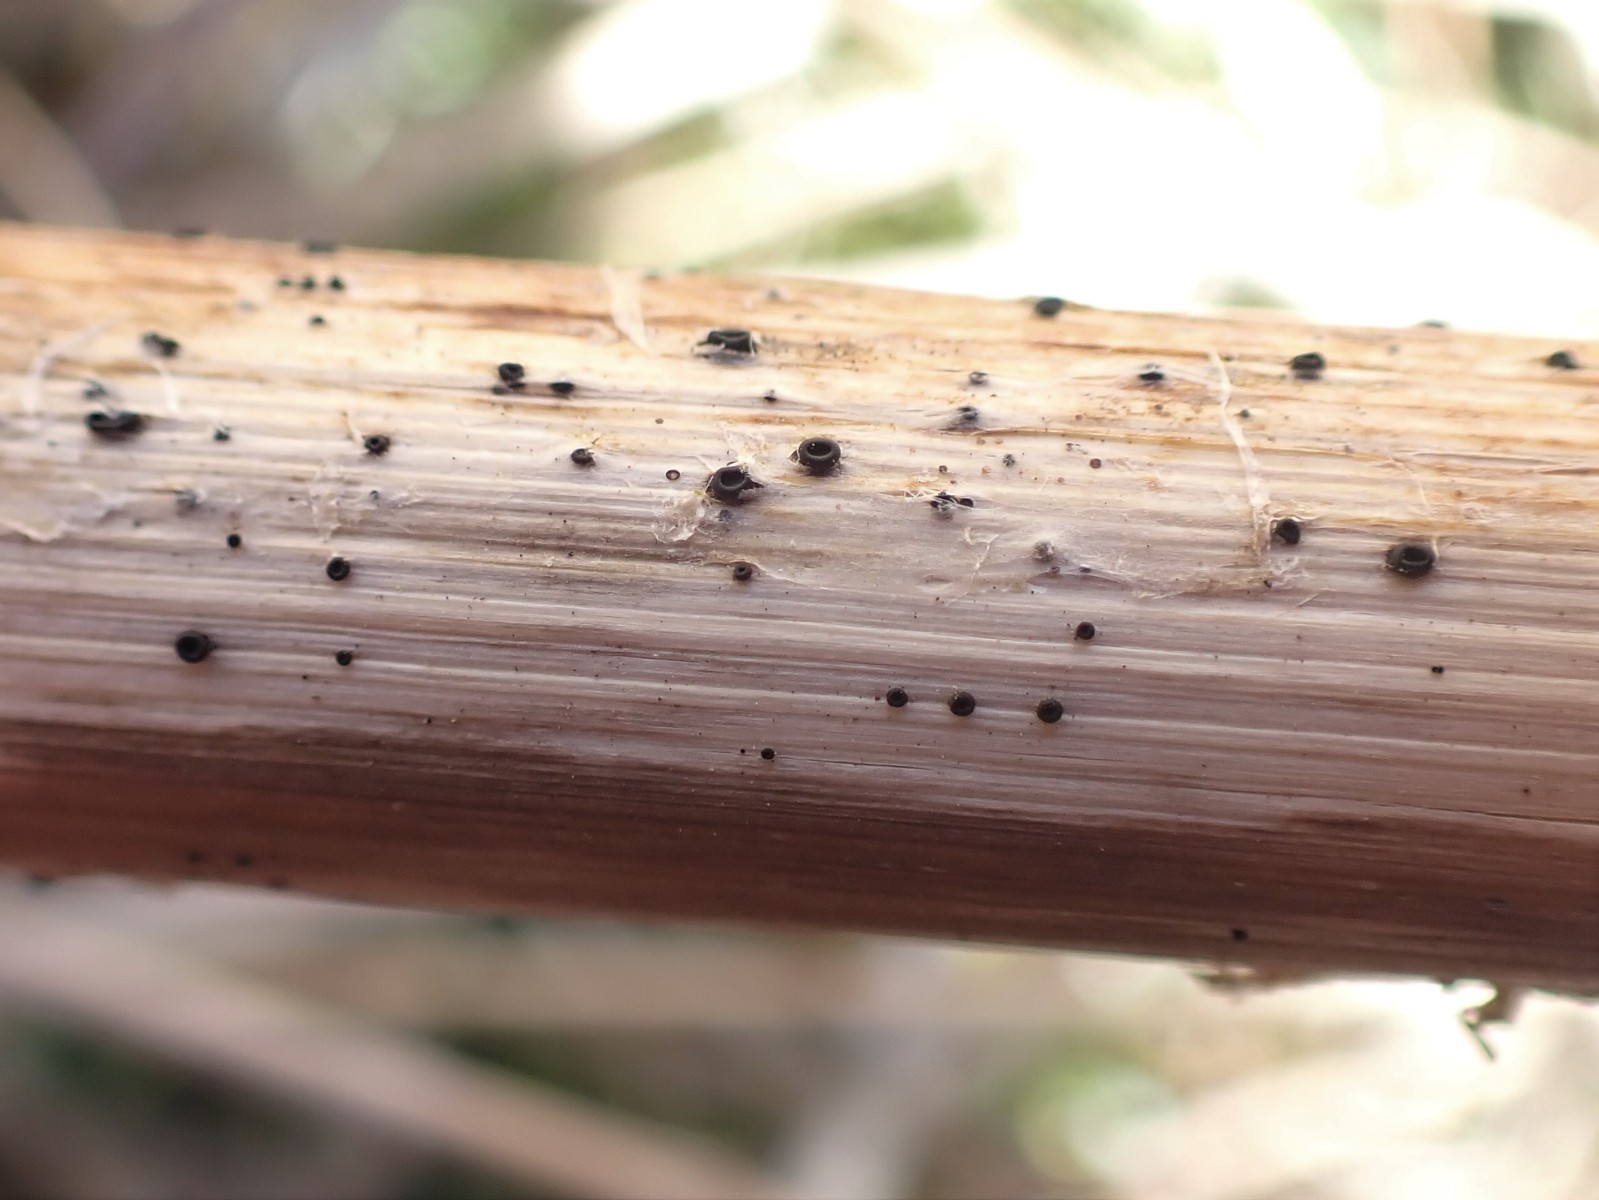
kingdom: Fungi
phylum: Ascomycota
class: Leotiomycetes
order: Helotiales
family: Heterosphaeriaceae
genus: Heterosphaeria
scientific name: Heterosphaeria
